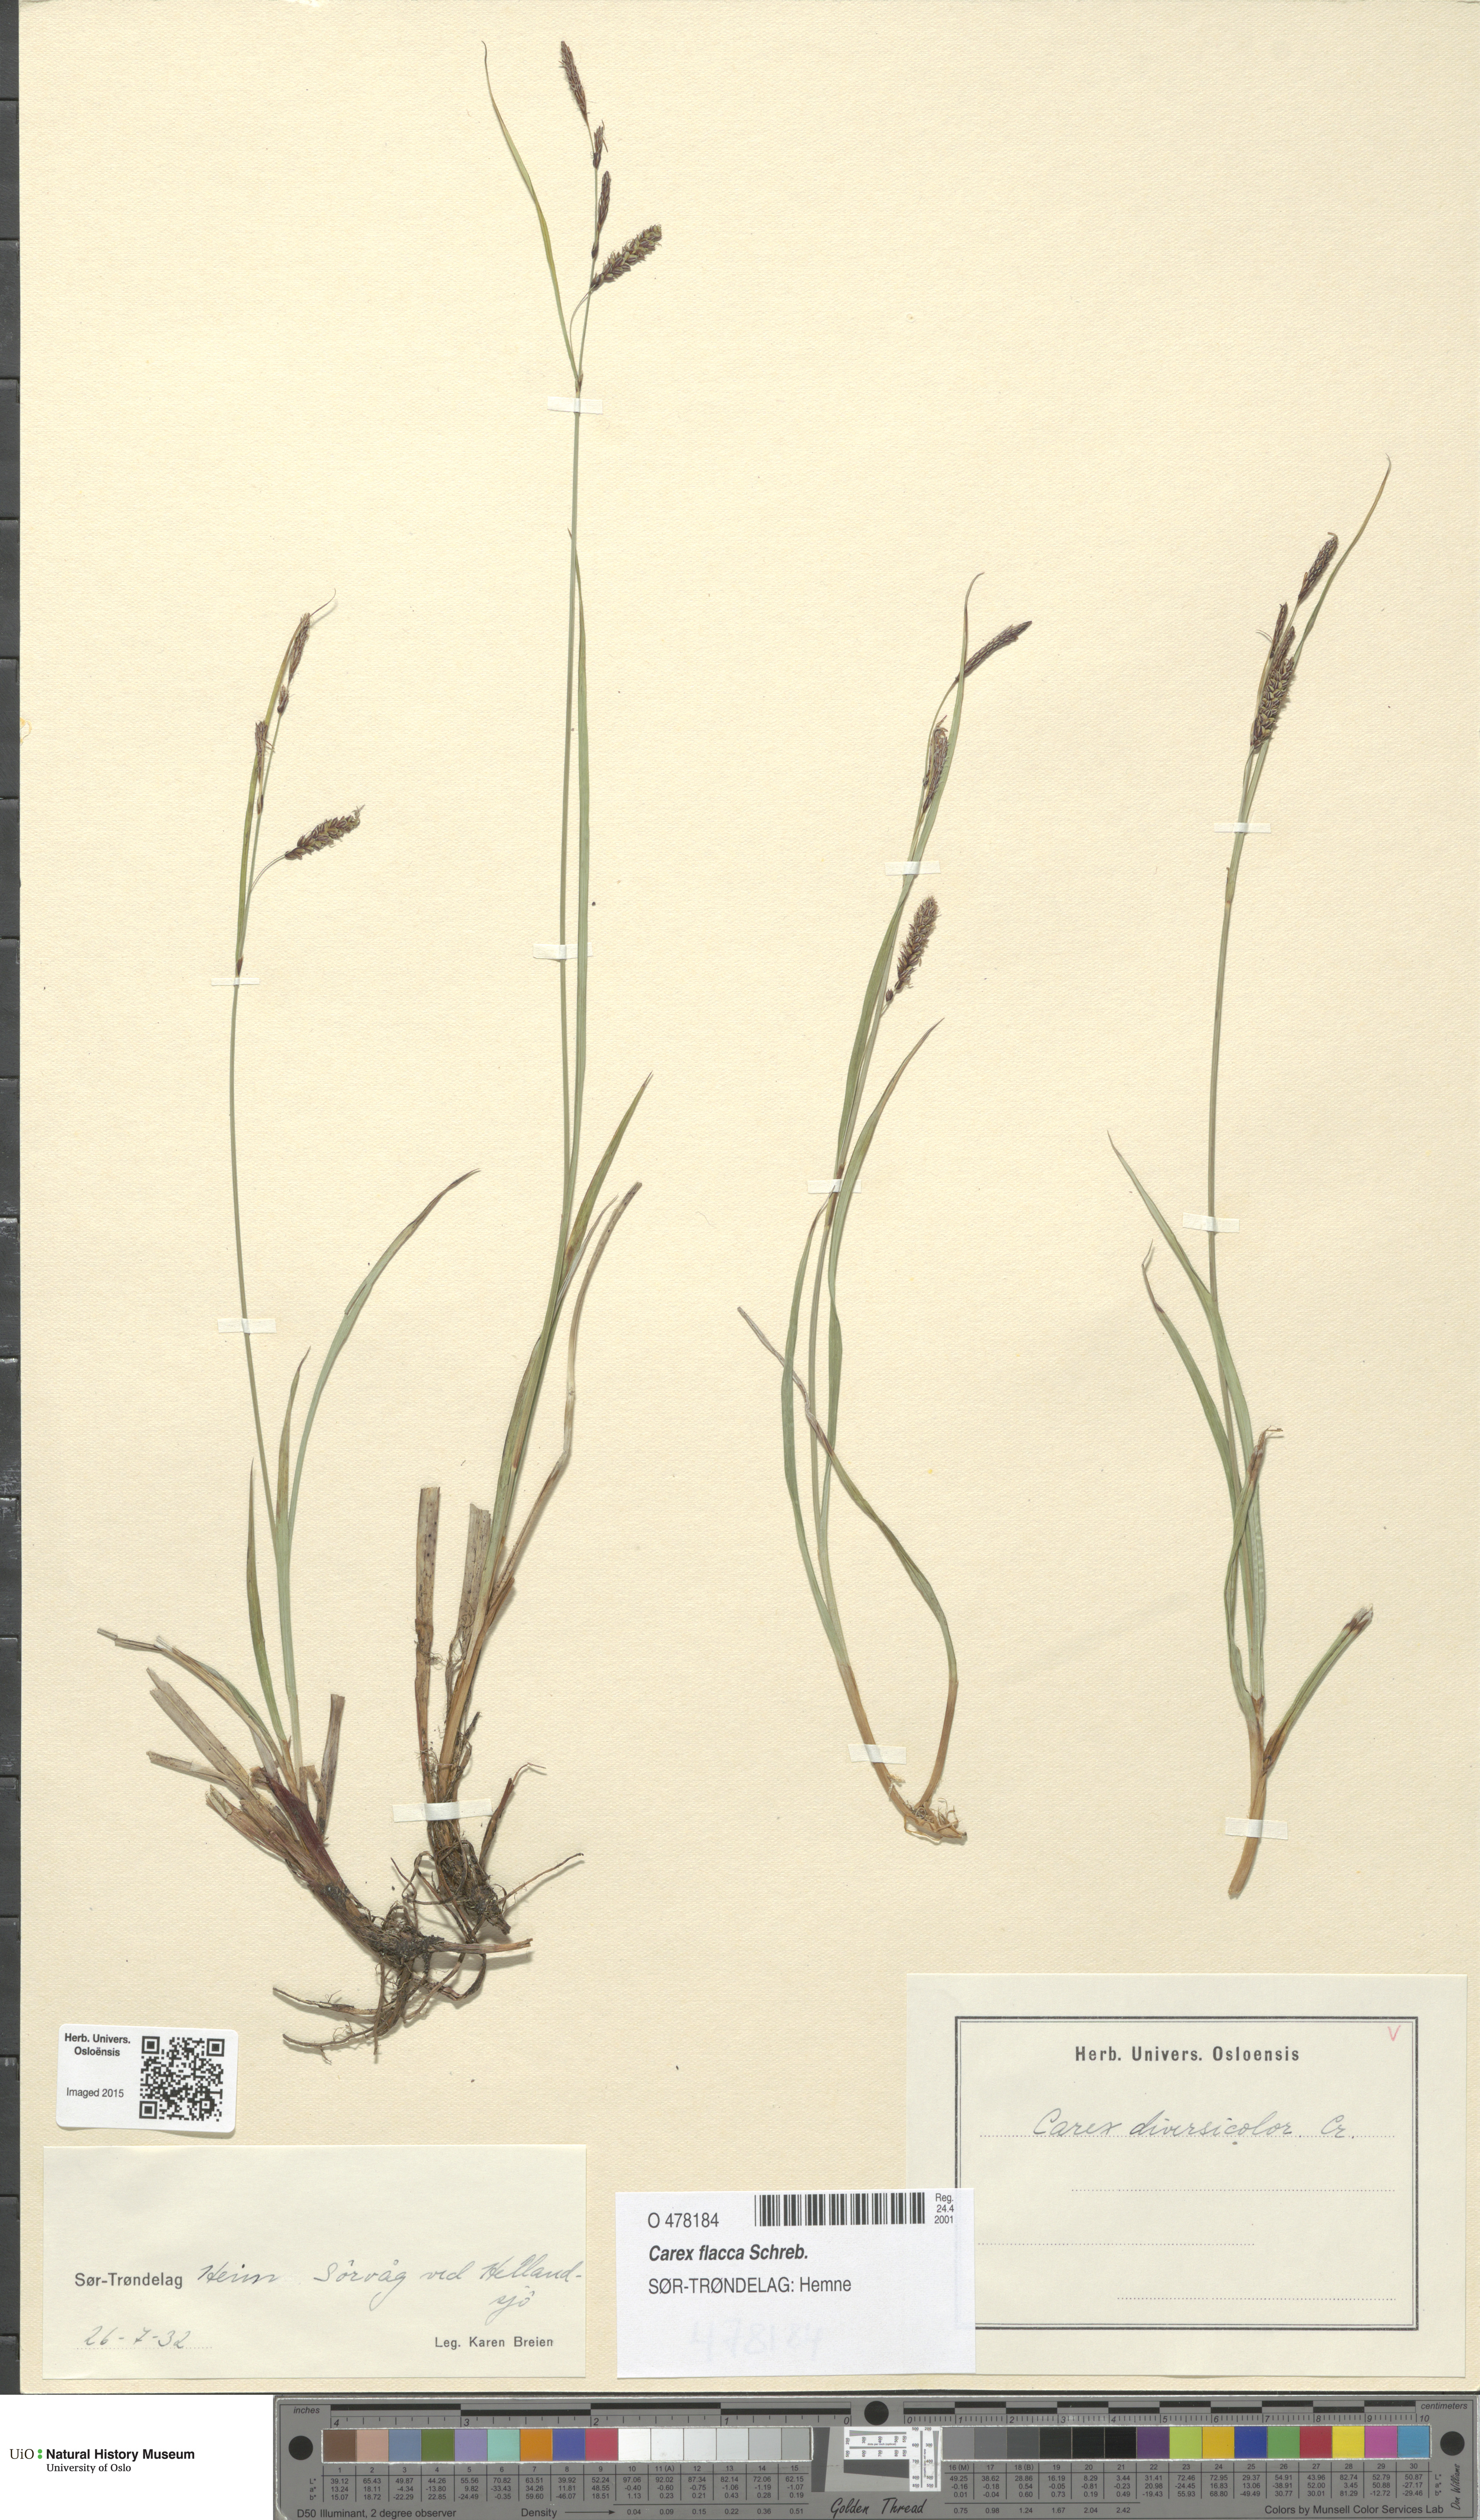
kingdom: Plantae
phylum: Tracheophyta
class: Liliopsida
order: Poales
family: Cyperaceae
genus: Carex
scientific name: Carex flacca
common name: Glaucous sedge
